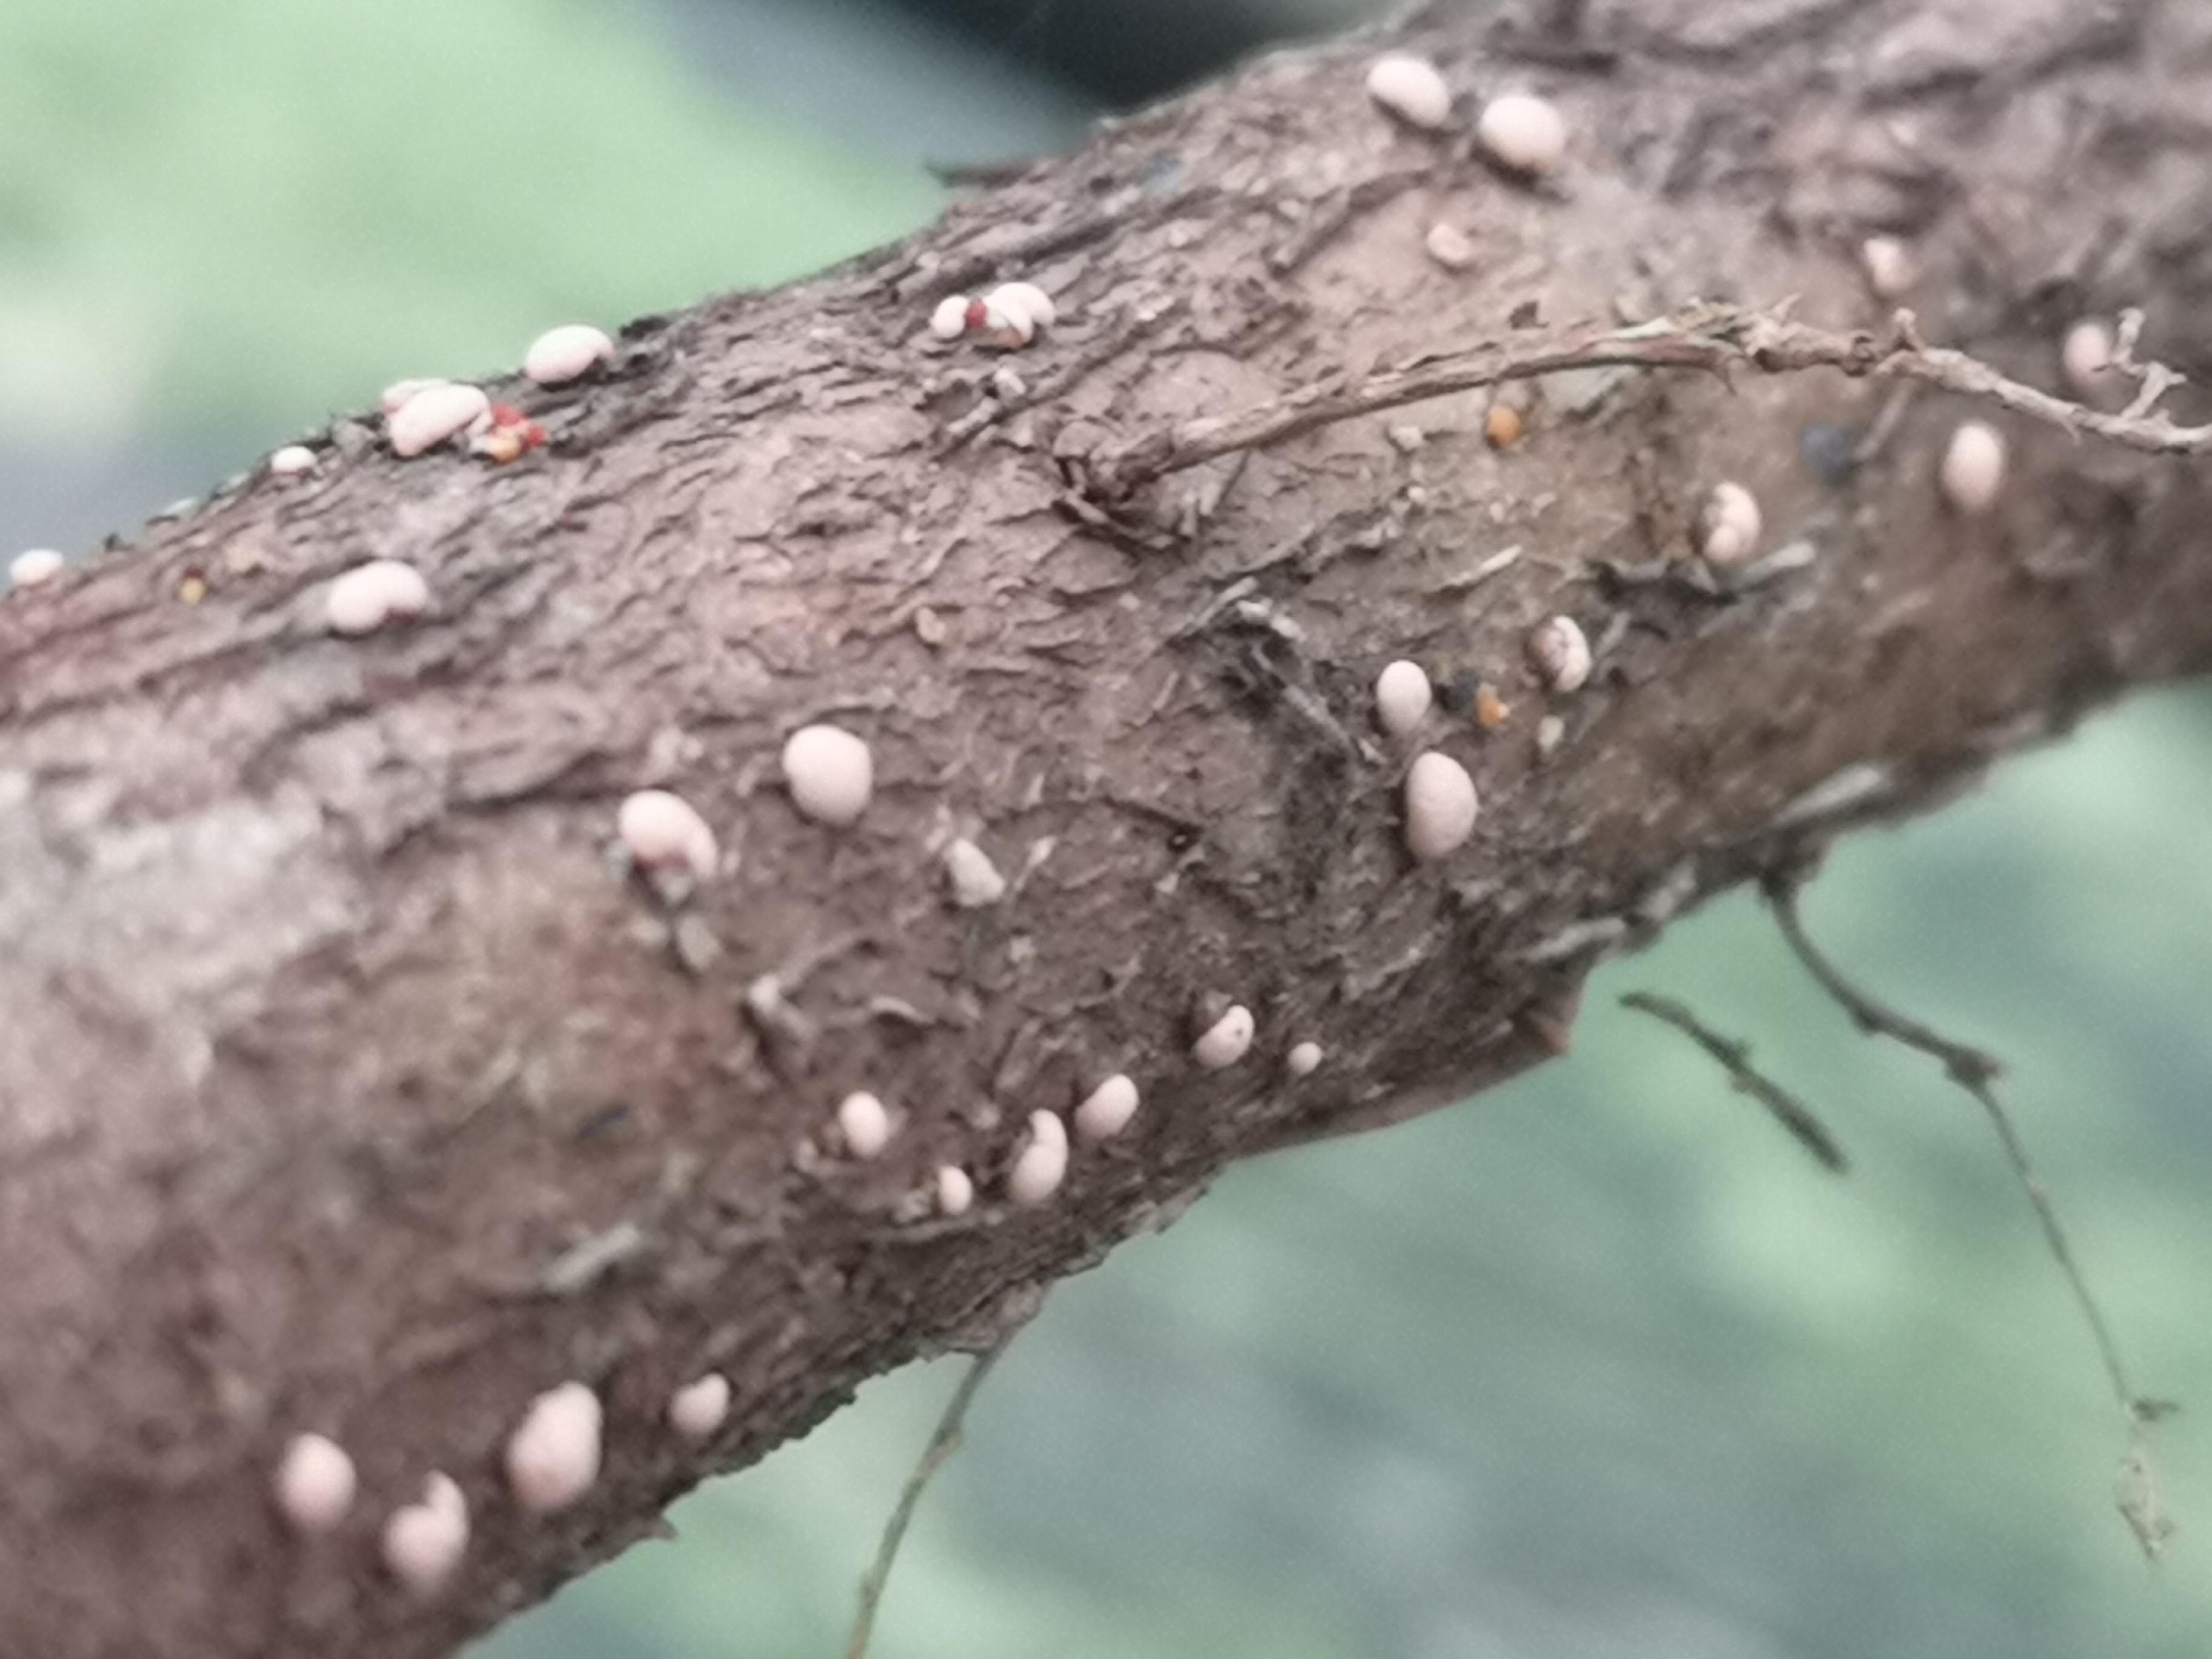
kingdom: Fungi
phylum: Ascomycota
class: Sordariomycetes
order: Hypocreales
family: Nectriaceae
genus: Nectria
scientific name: Nectria cinnabarina
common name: almindelig cinnobersvamp
